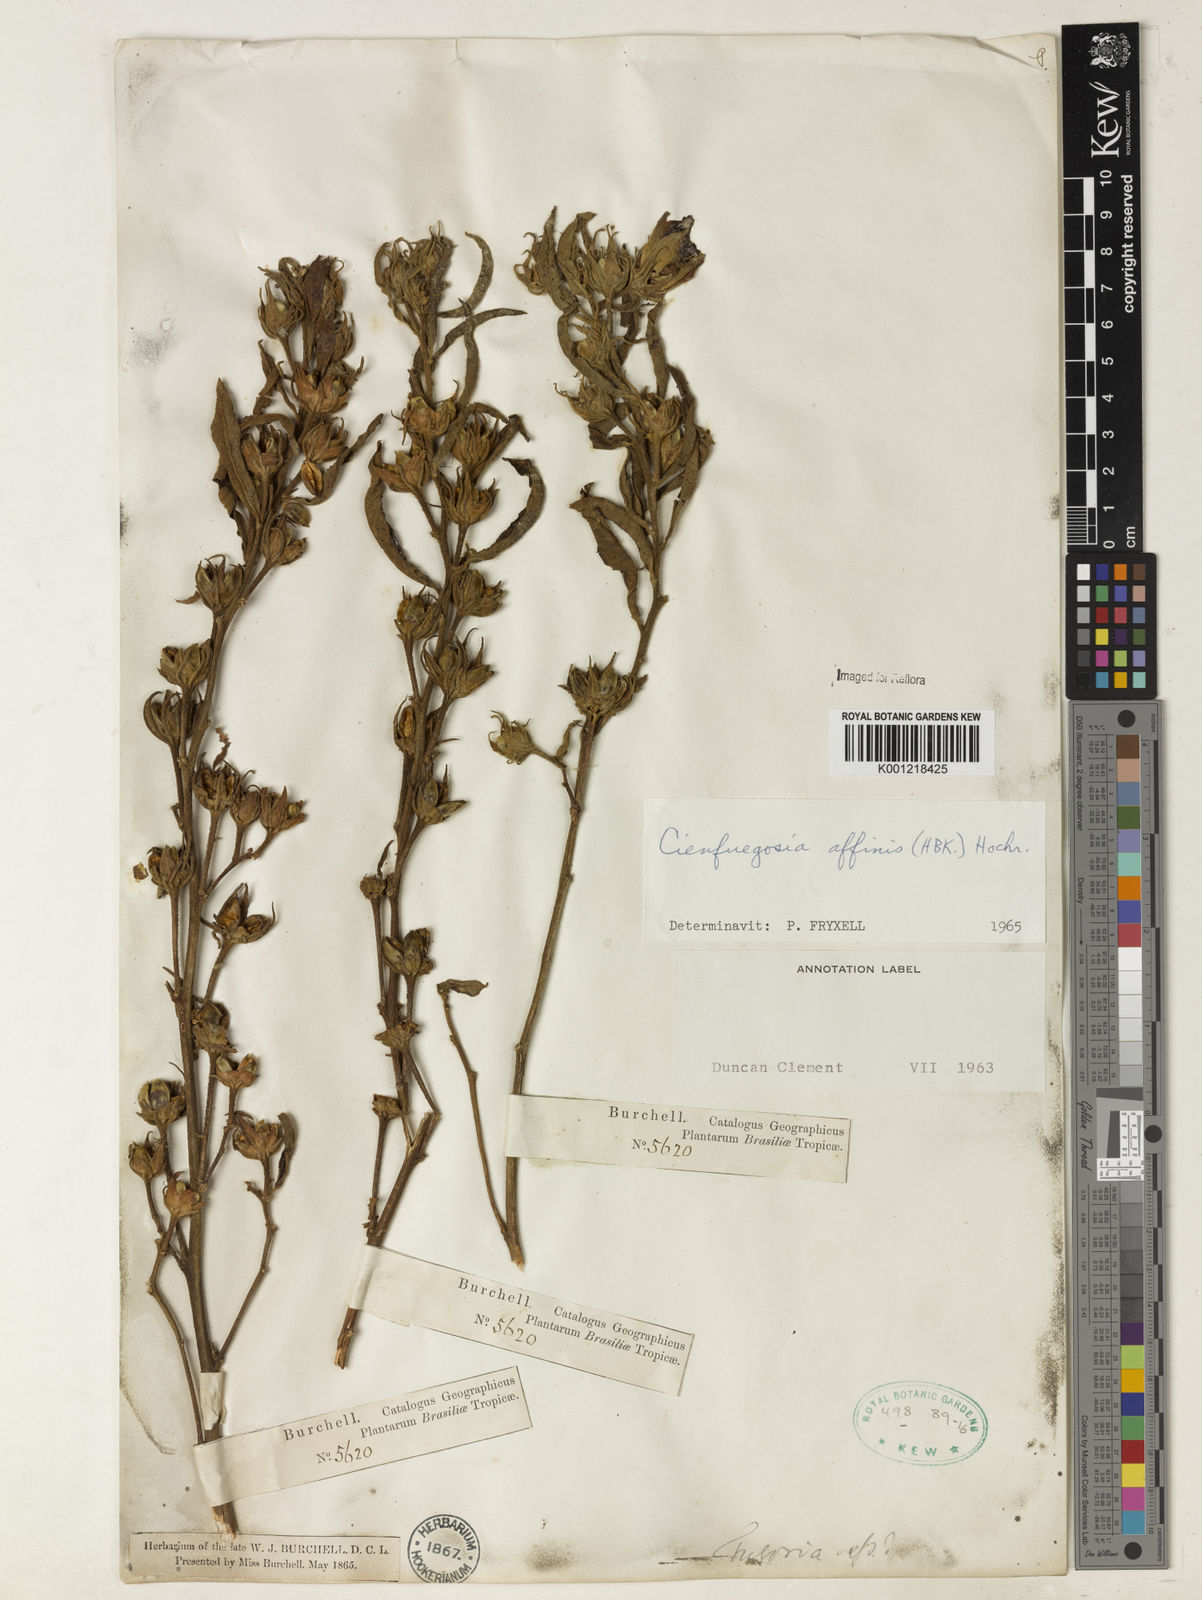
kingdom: Plantae
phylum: Tracheophyta
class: Magnoliopsida
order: Malvales
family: Malvaceae
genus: Cienfuegosia
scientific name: Cienfuegosia affinis
